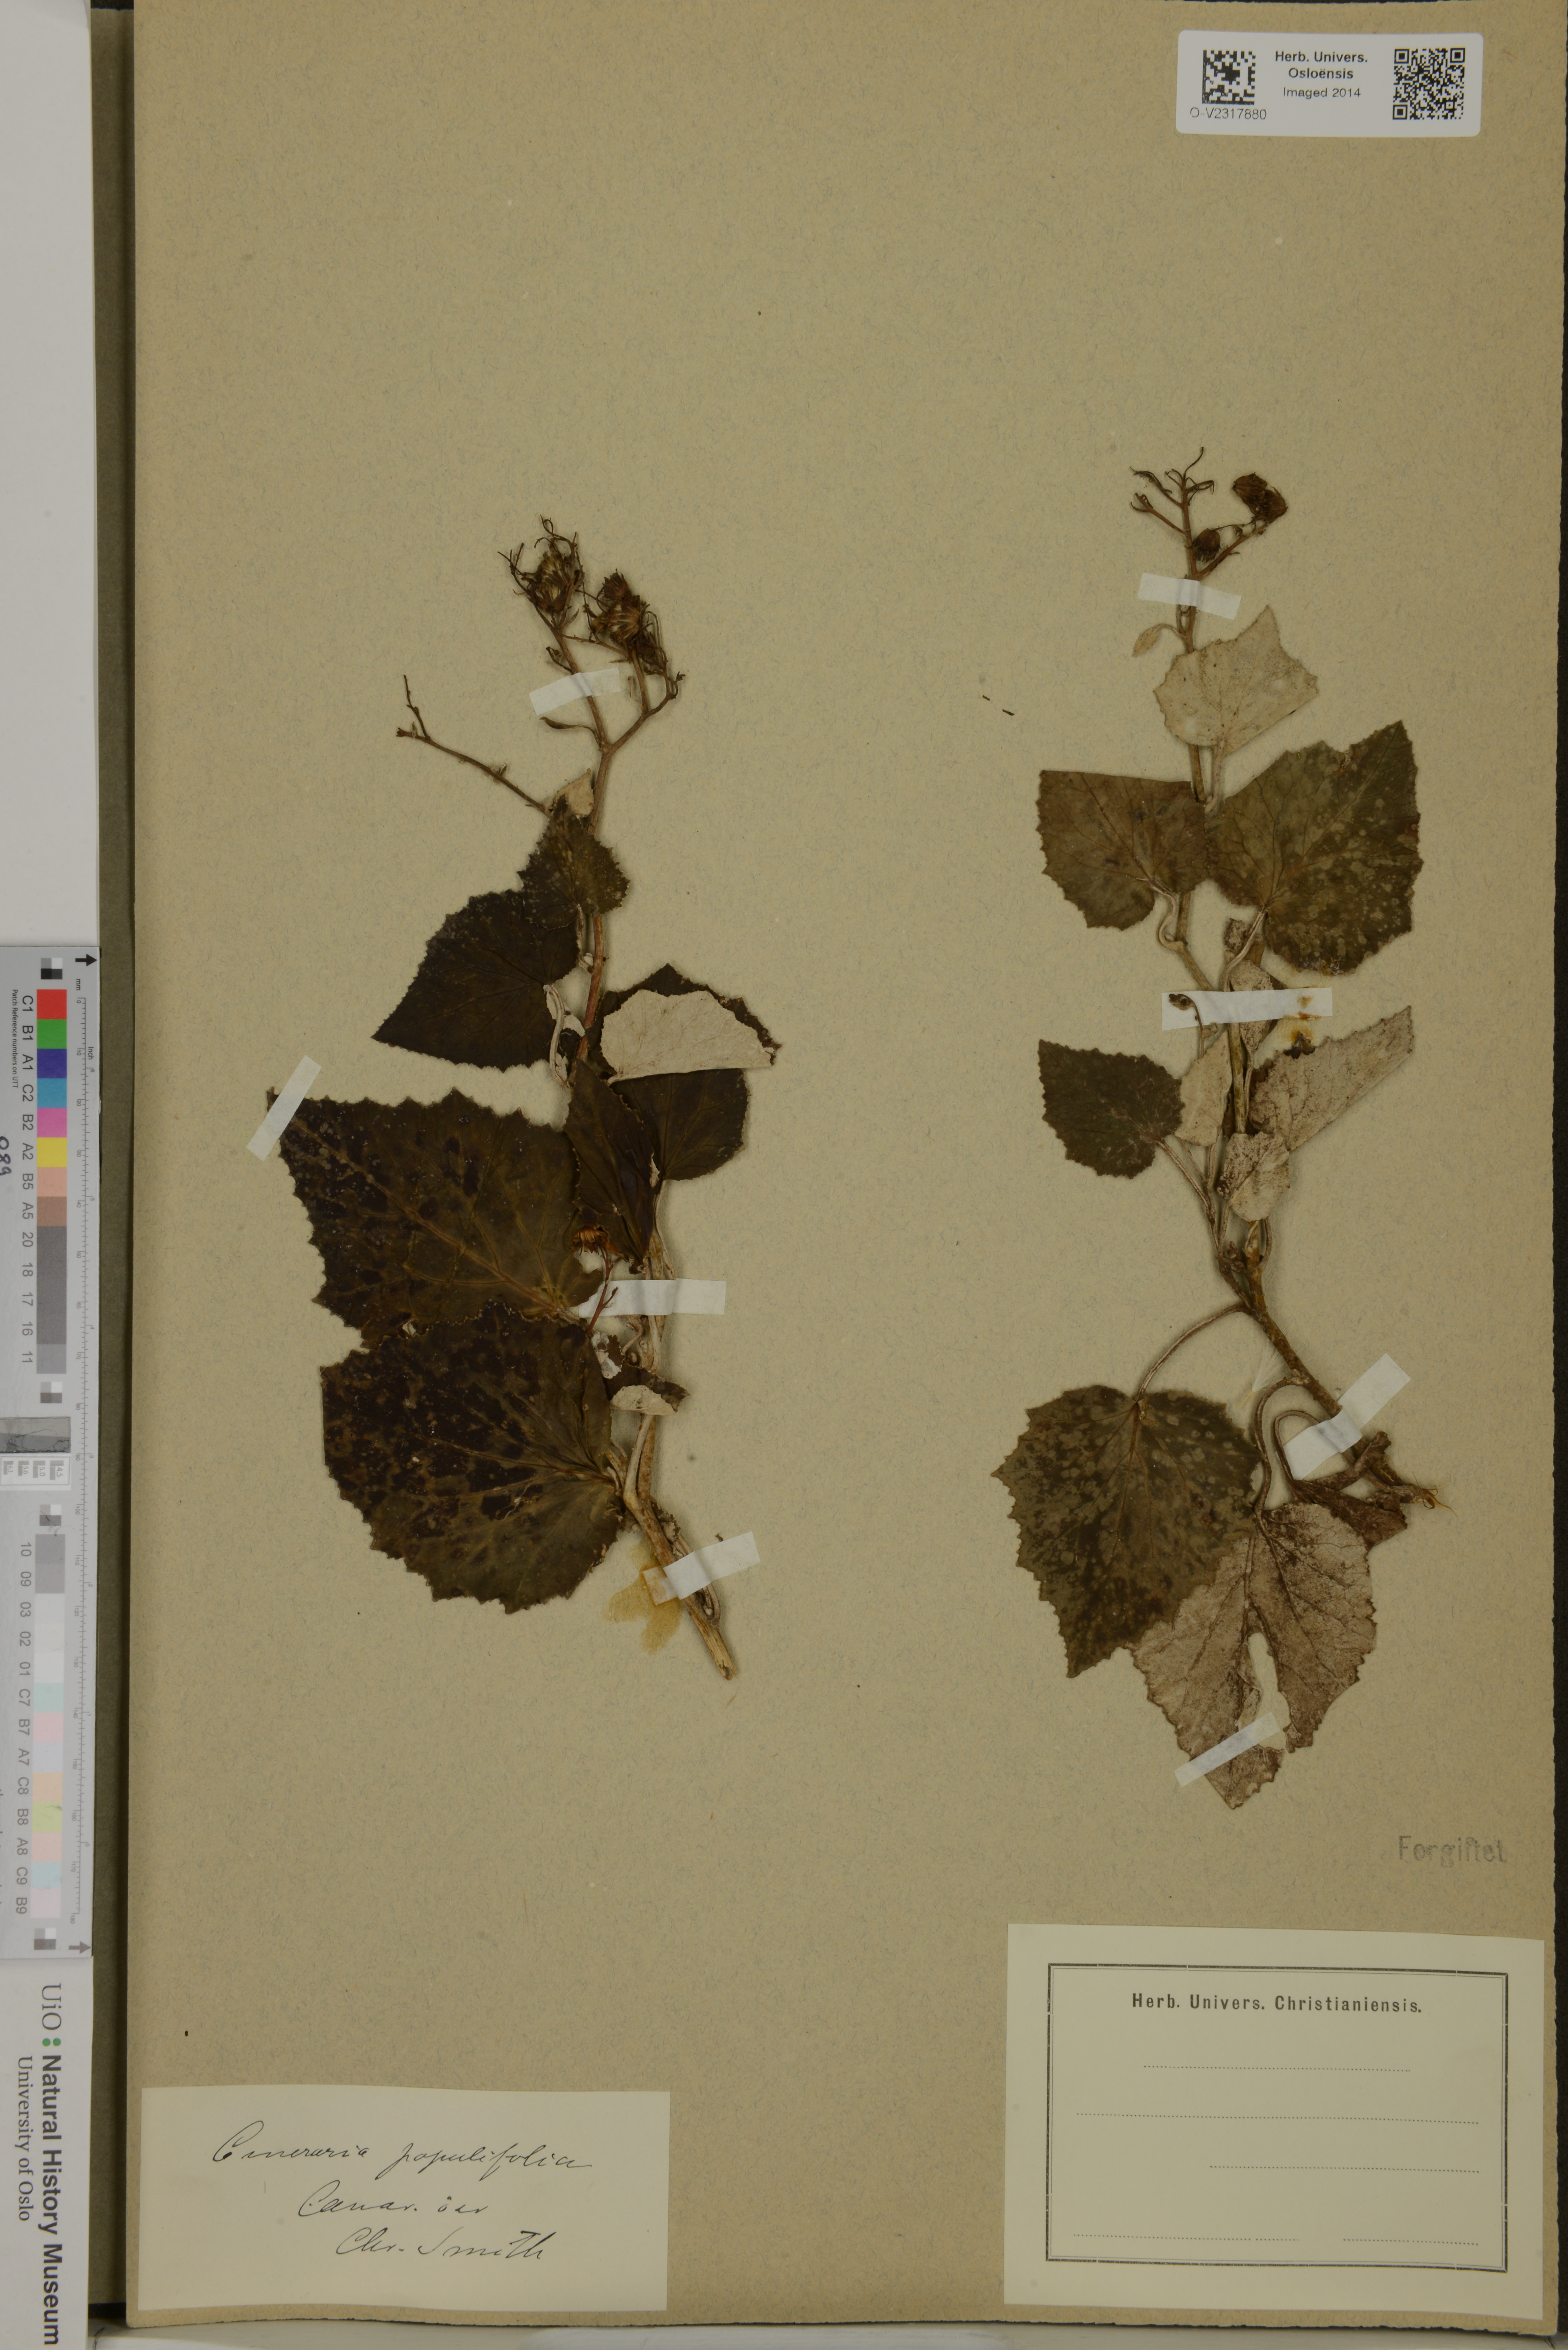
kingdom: Plantae
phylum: Tracheophyta
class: Magnoliopsida
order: Asterales
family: Asteraceae
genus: Pericallis
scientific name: Pericallis appendiculata
